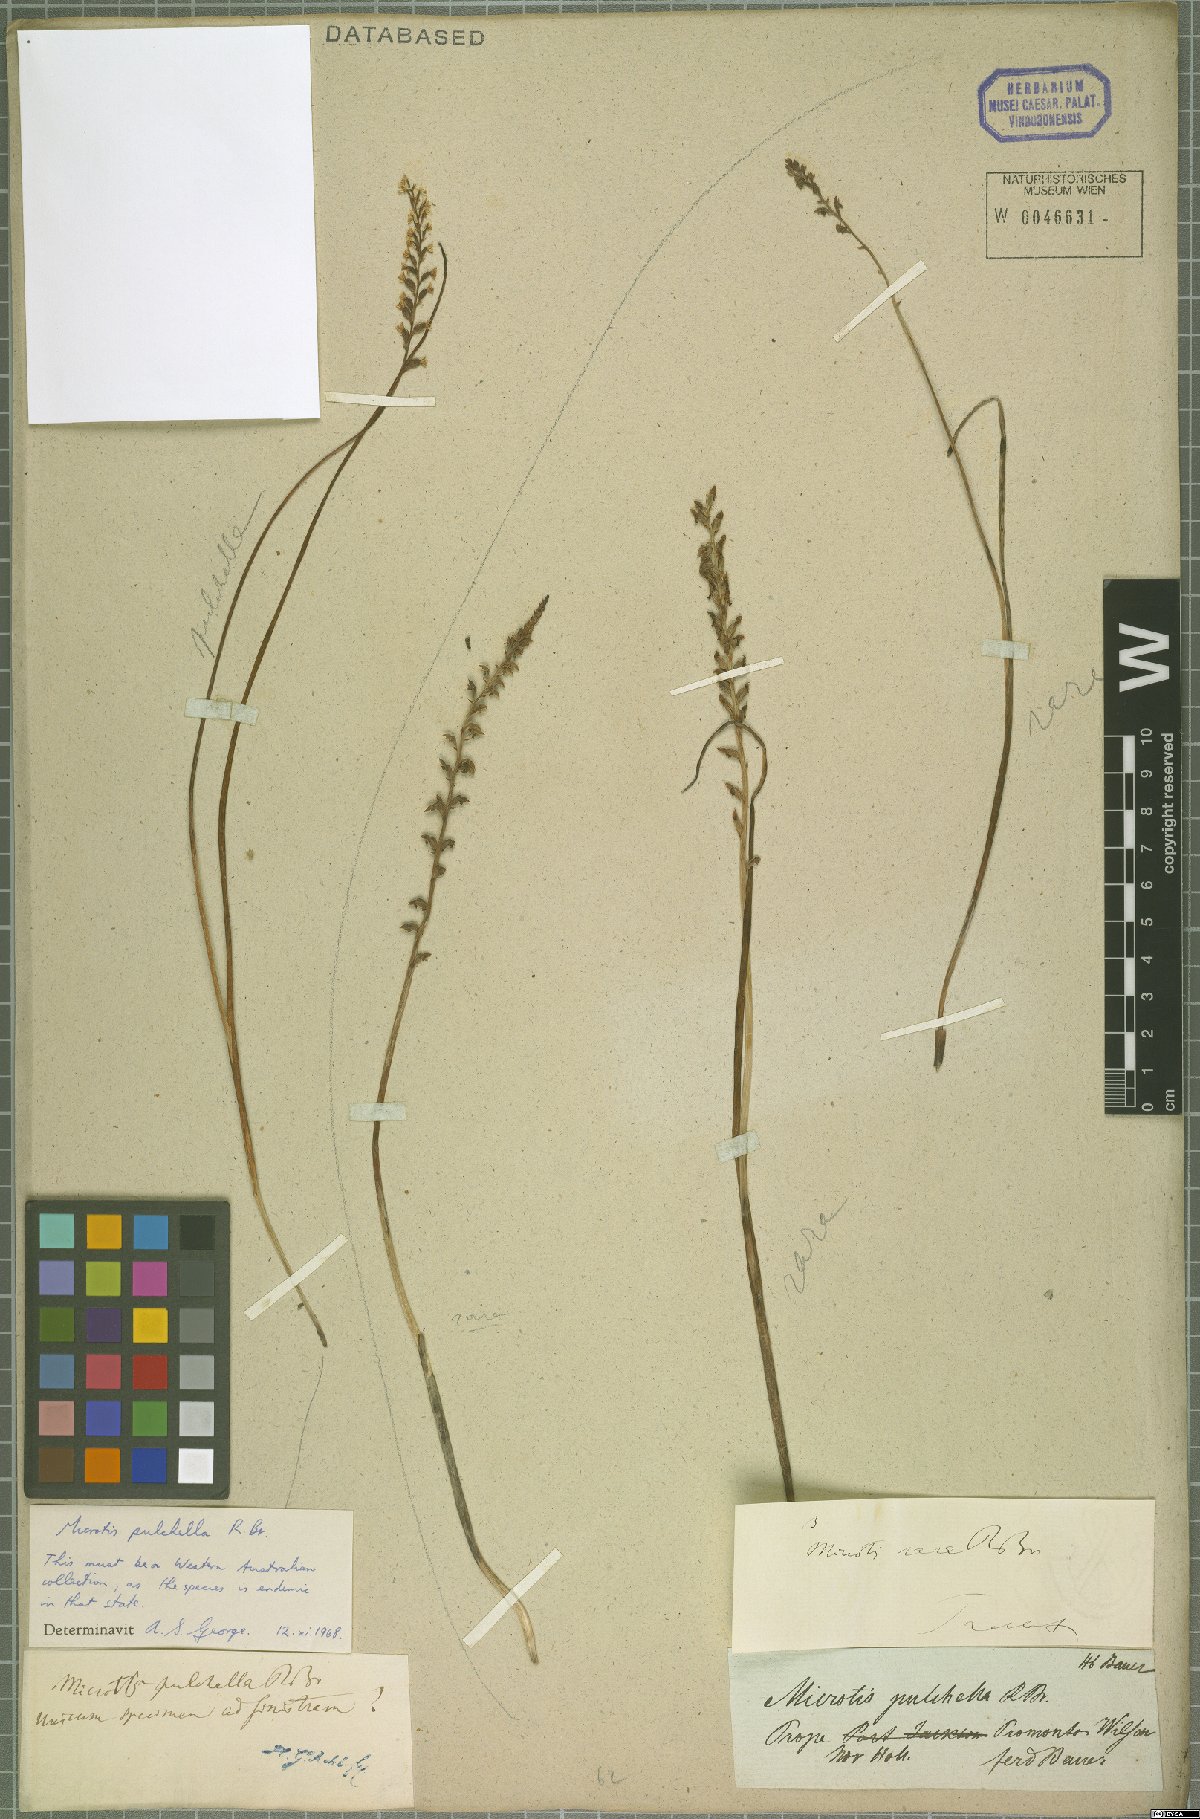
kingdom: Plantae
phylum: Tracheophyta
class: Liliopsida
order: Asparagales
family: Orchidaceae
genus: Microtis
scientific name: Microtis pulchella
